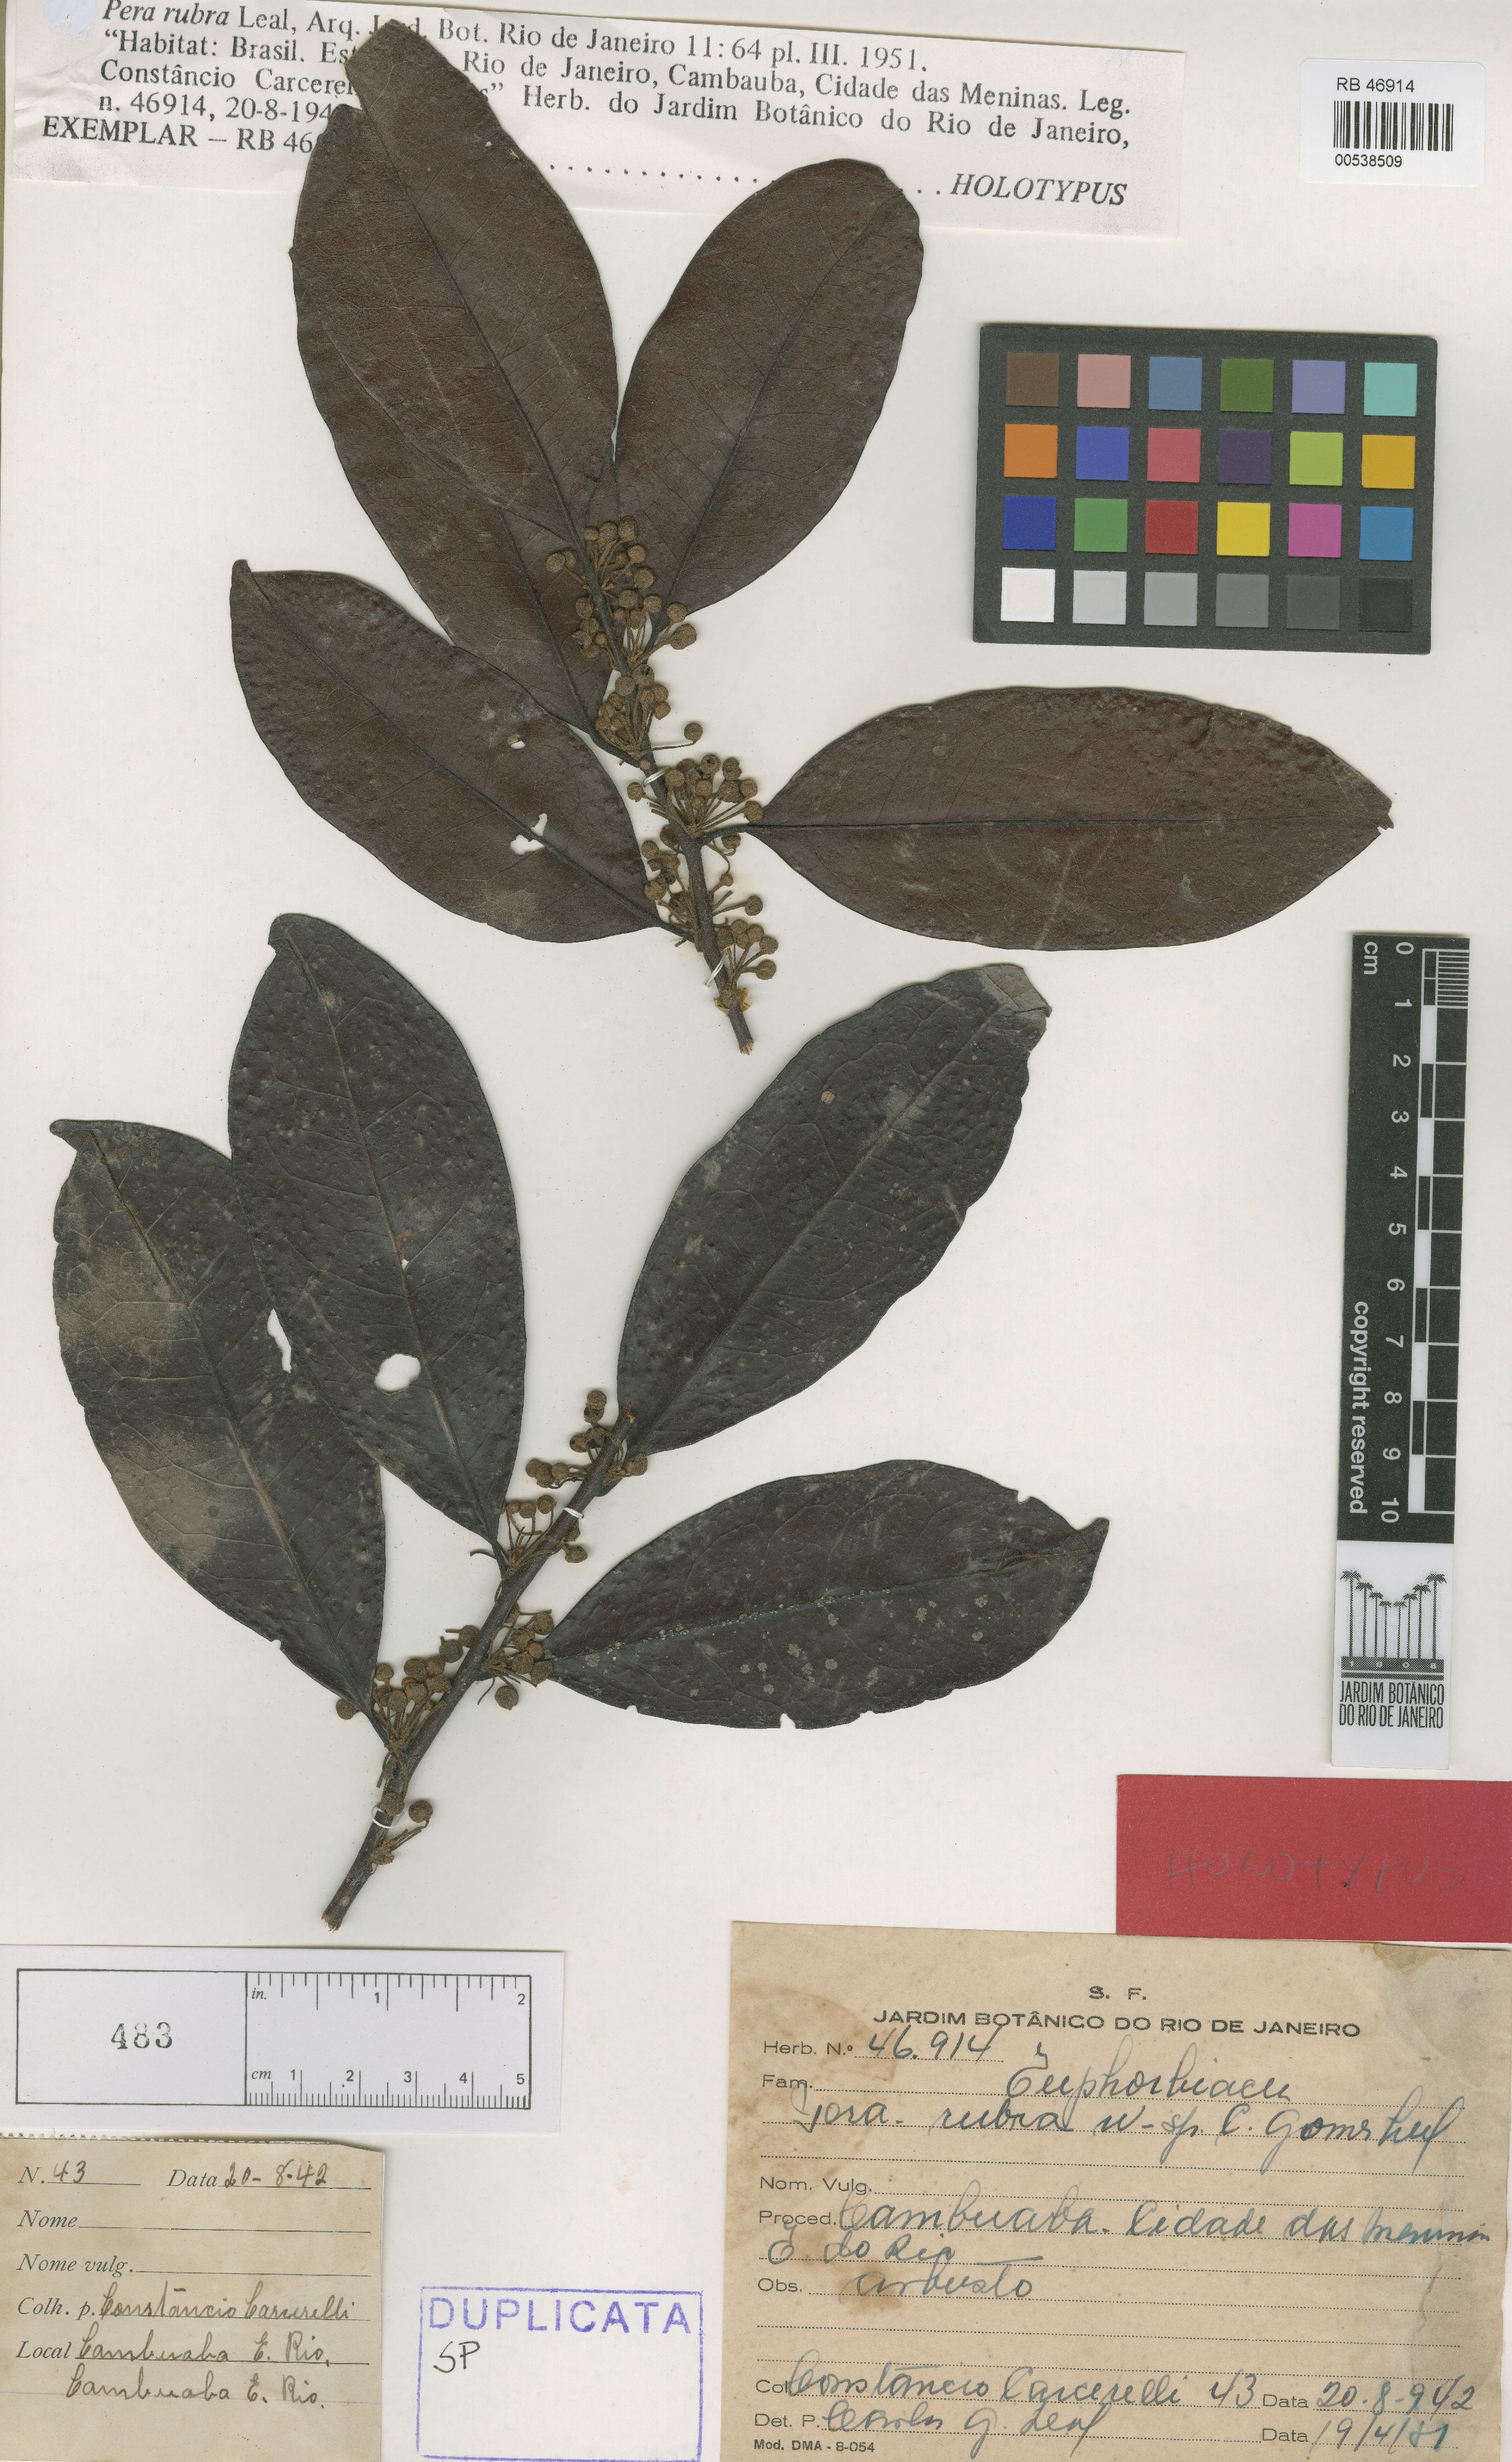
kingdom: Plantae
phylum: Tracheophyta
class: Magnoliopsida
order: Malpighiales
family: Peraceae
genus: Pera
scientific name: Pera rubra
